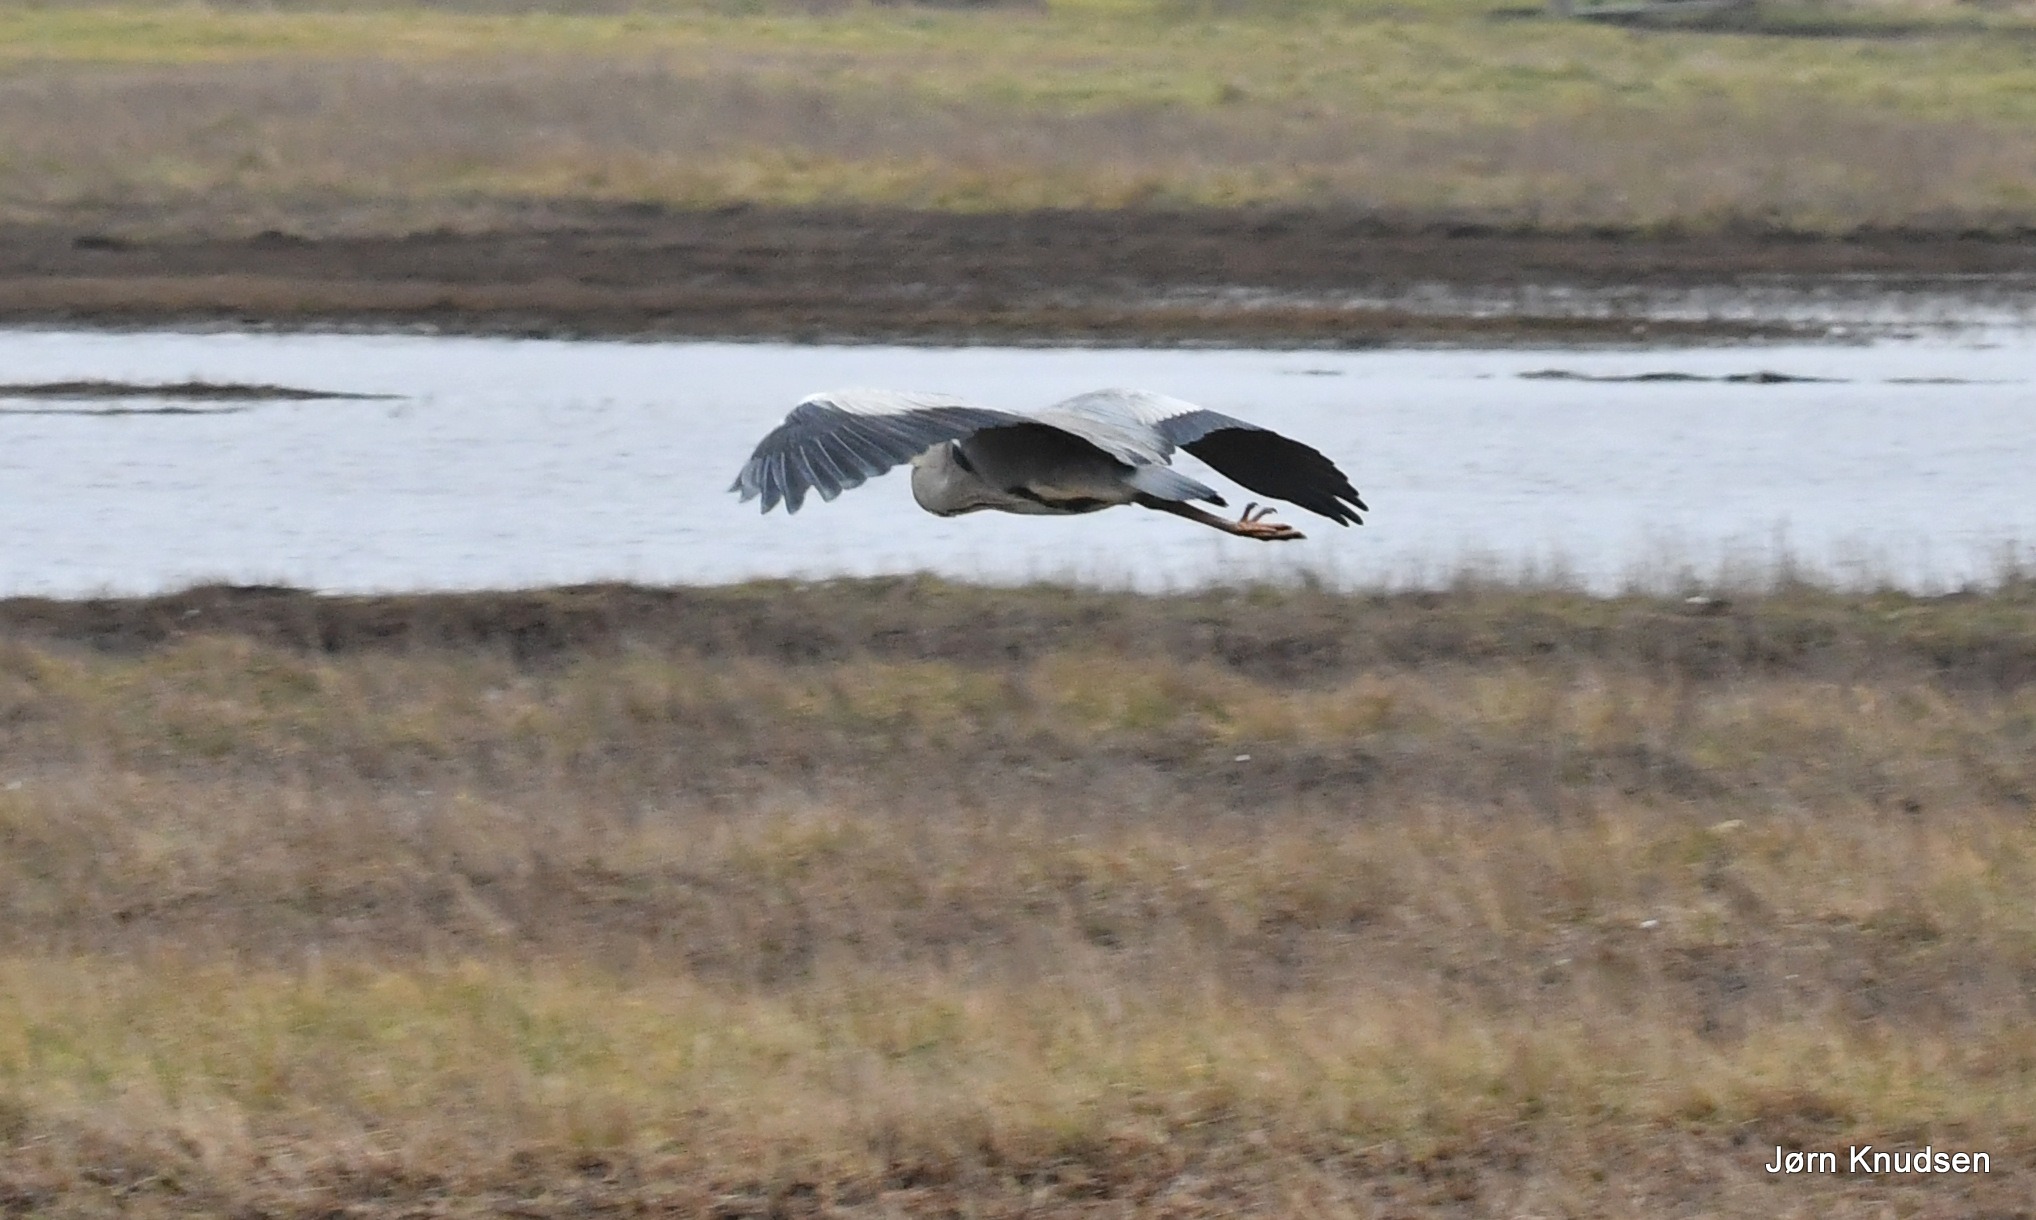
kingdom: Animalia
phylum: Chordata
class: Aves
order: Pelecaniformes
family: Ardeidae
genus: Ardea
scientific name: Ardea cinerea
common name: Fiskehejre
